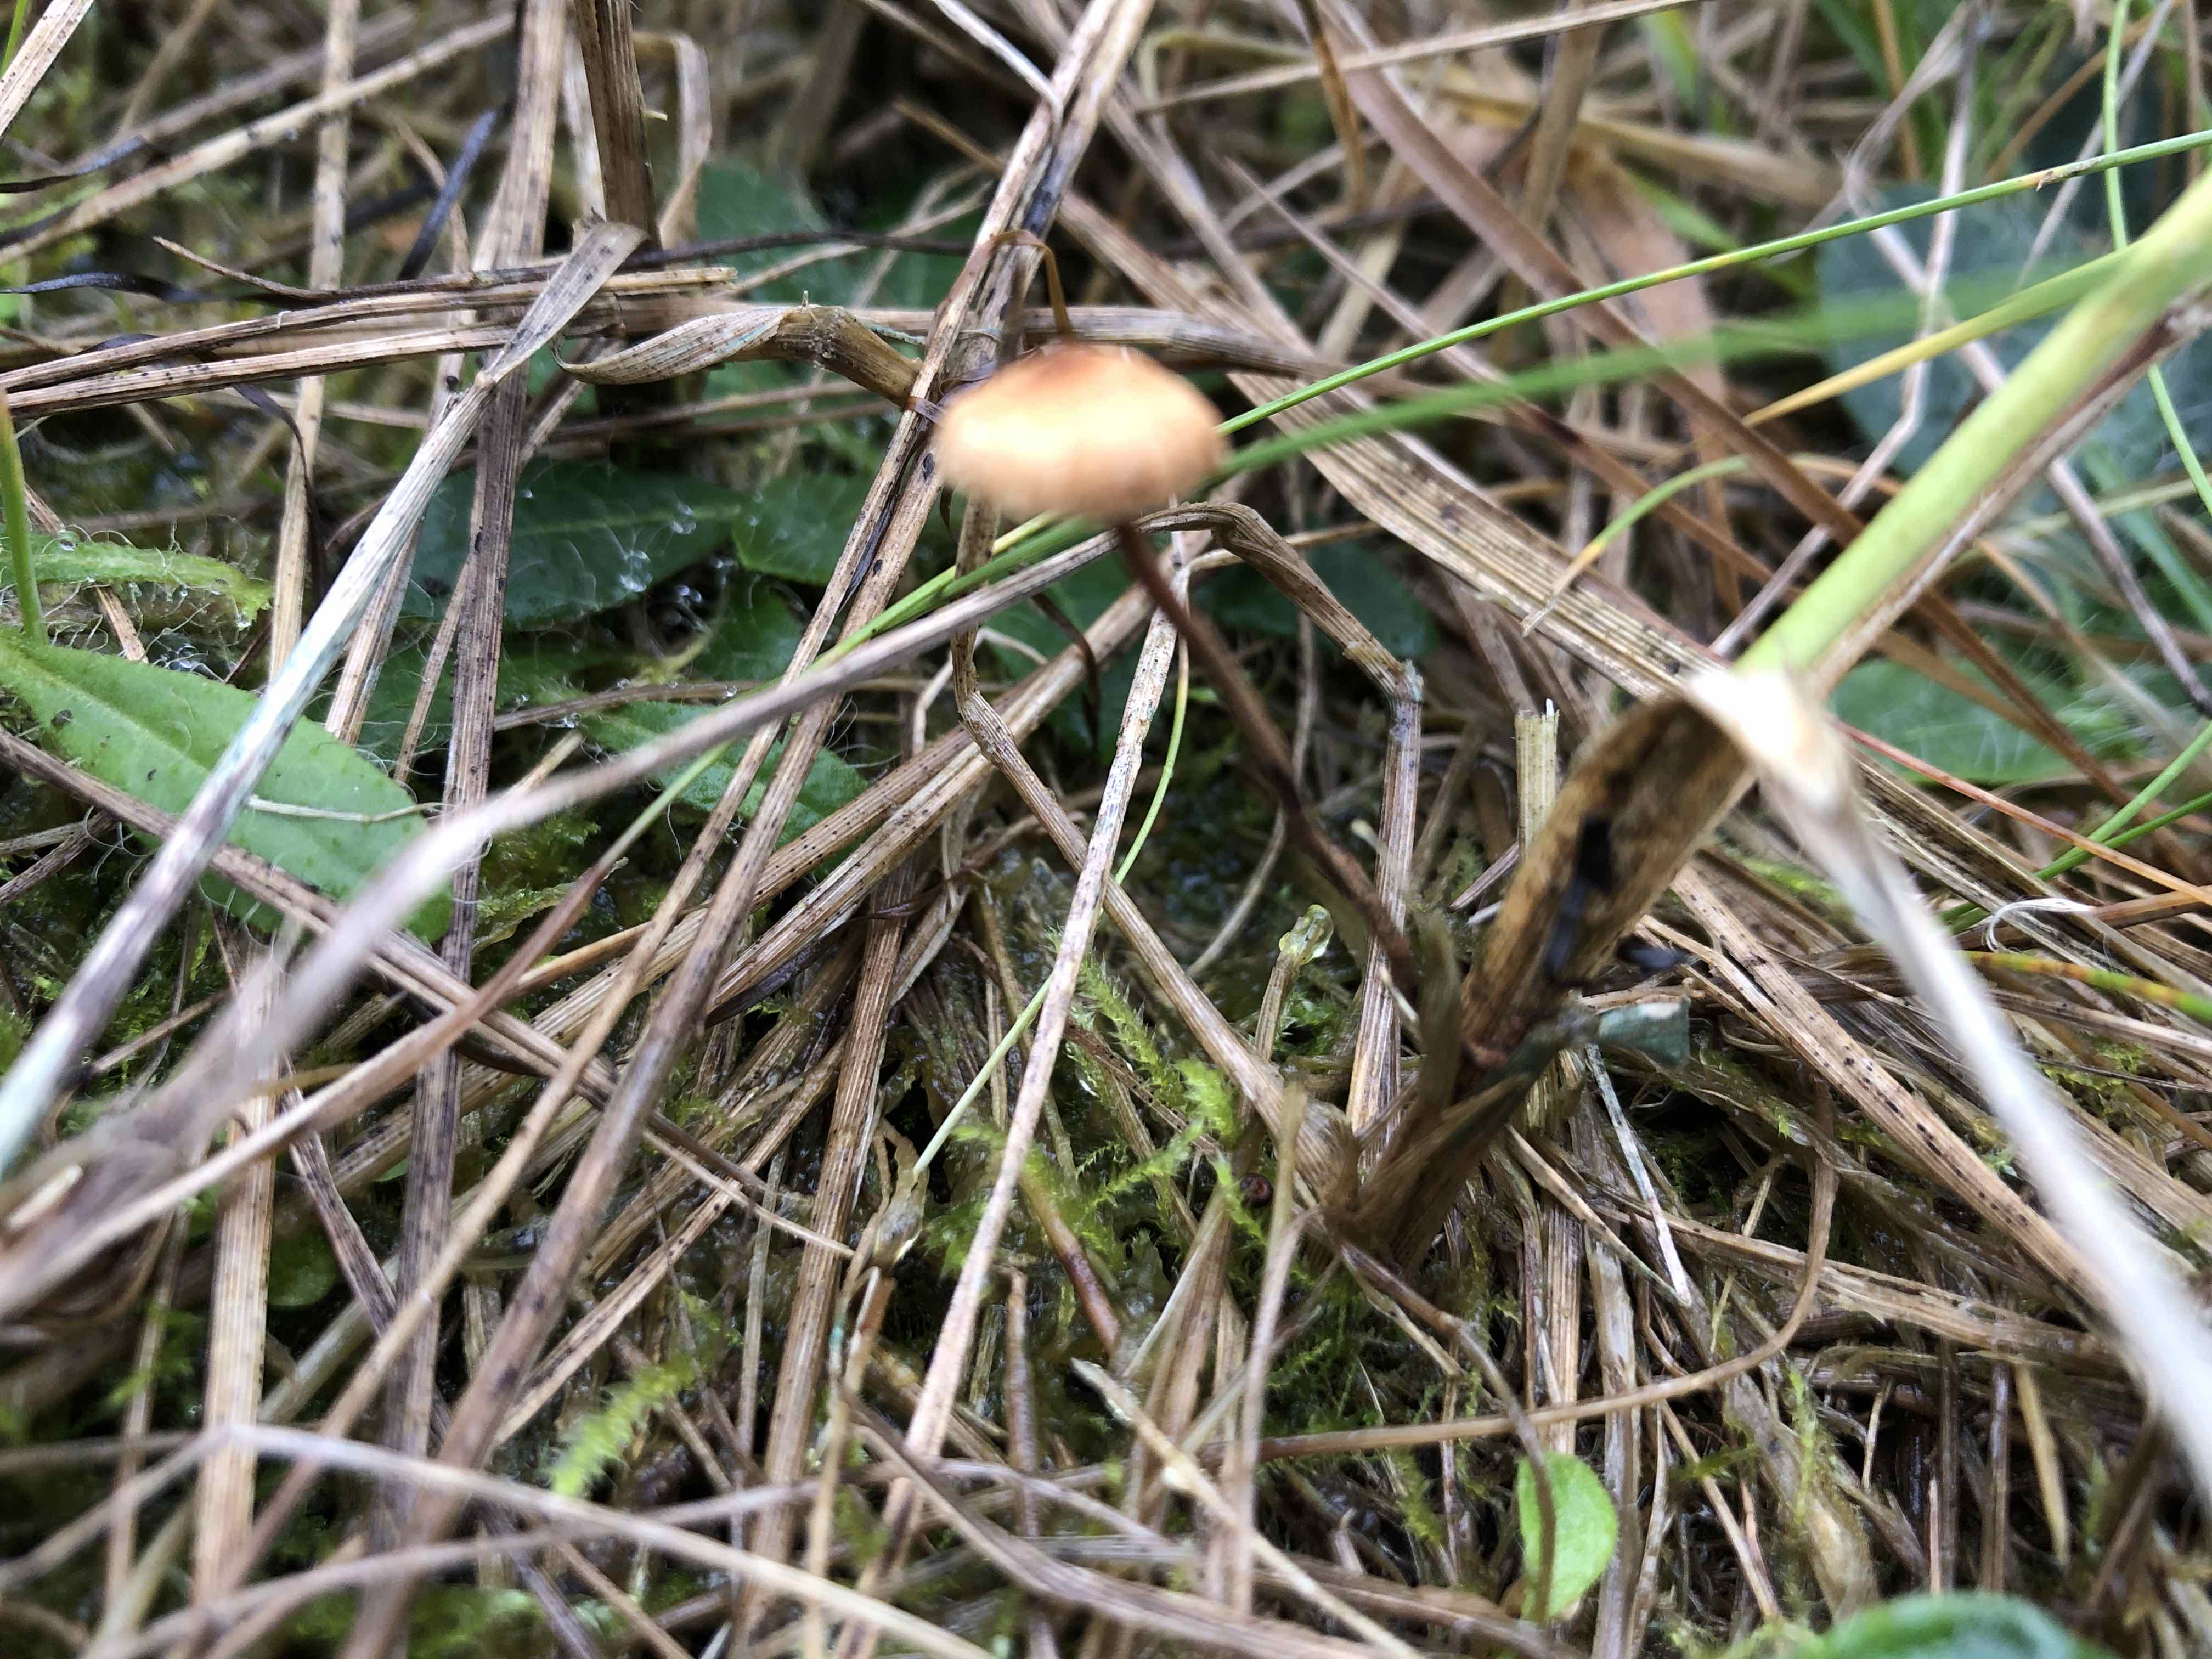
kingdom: Fungi
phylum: Basidiomycota
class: Agaricomycetes
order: Agaricales
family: Marasmiaceae
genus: Crinipellis
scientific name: Crinipellis scabella
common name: børstefod
